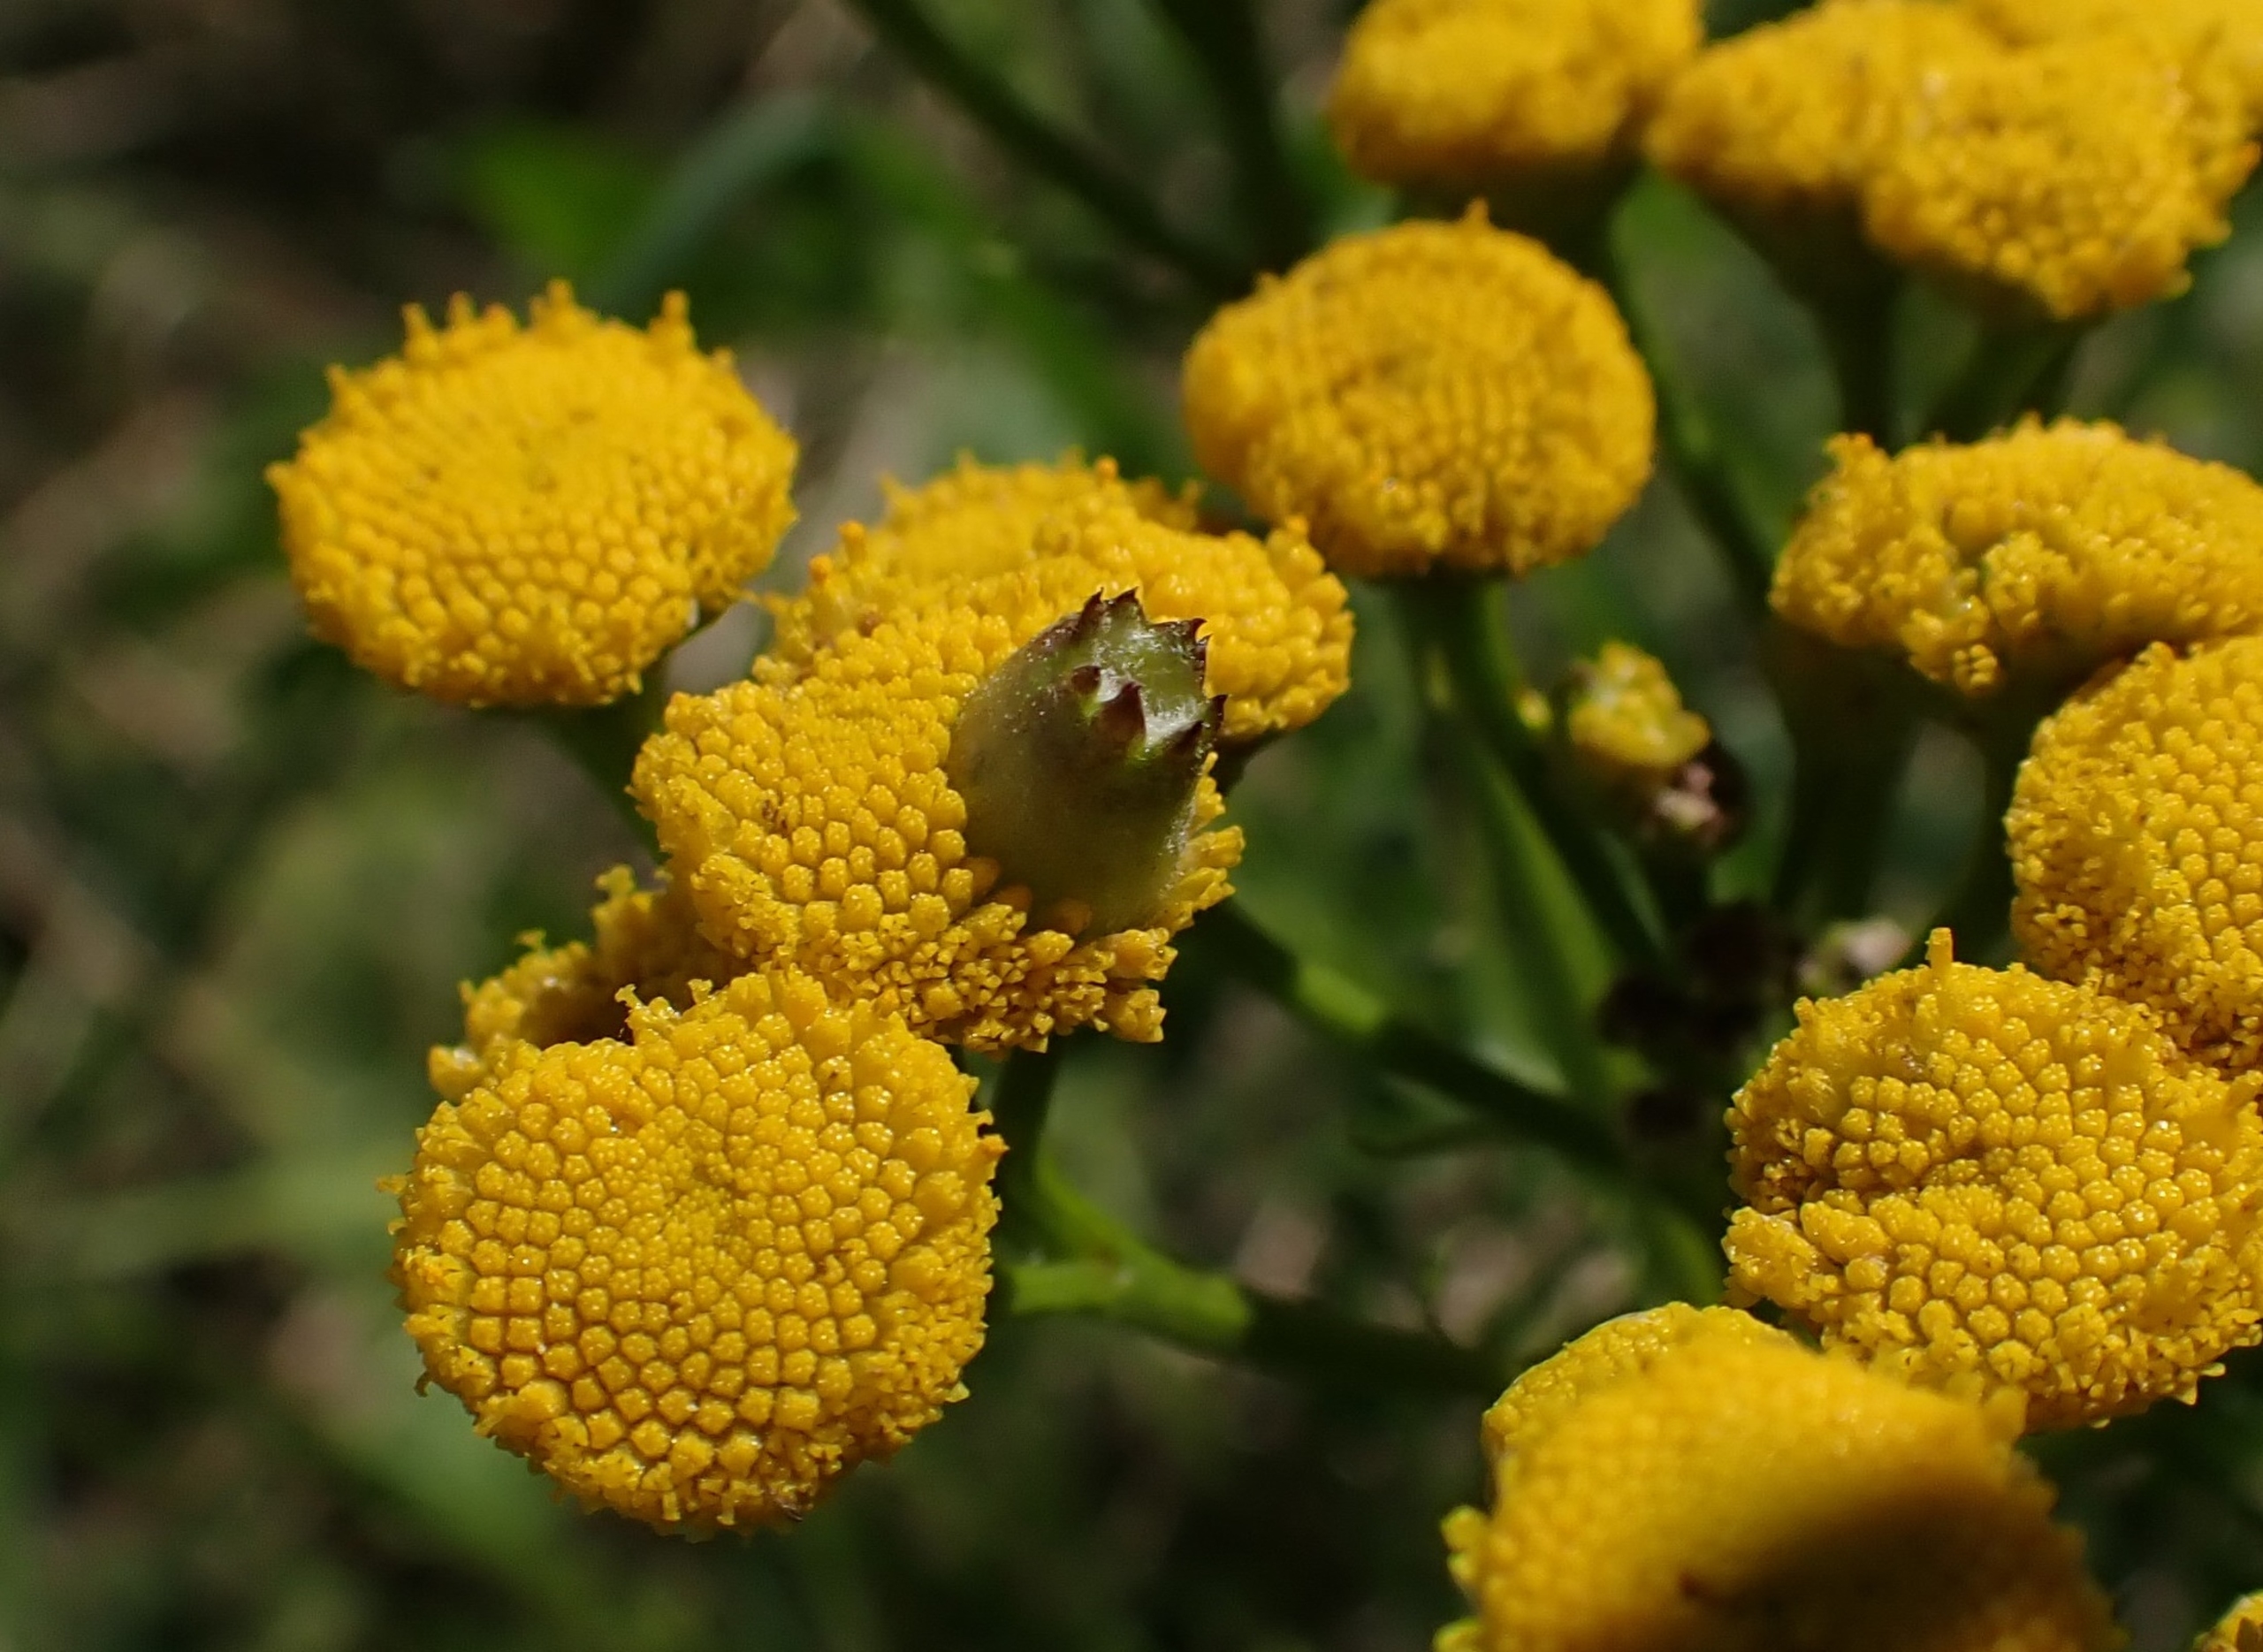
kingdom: Animalia
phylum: Arthropoda
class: Insecta
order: Diptera
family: Cecidomyiidae
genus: Rhopalomyia
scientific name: Rhopalomyia tanaceticolus
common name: Rejnfangalmyg
